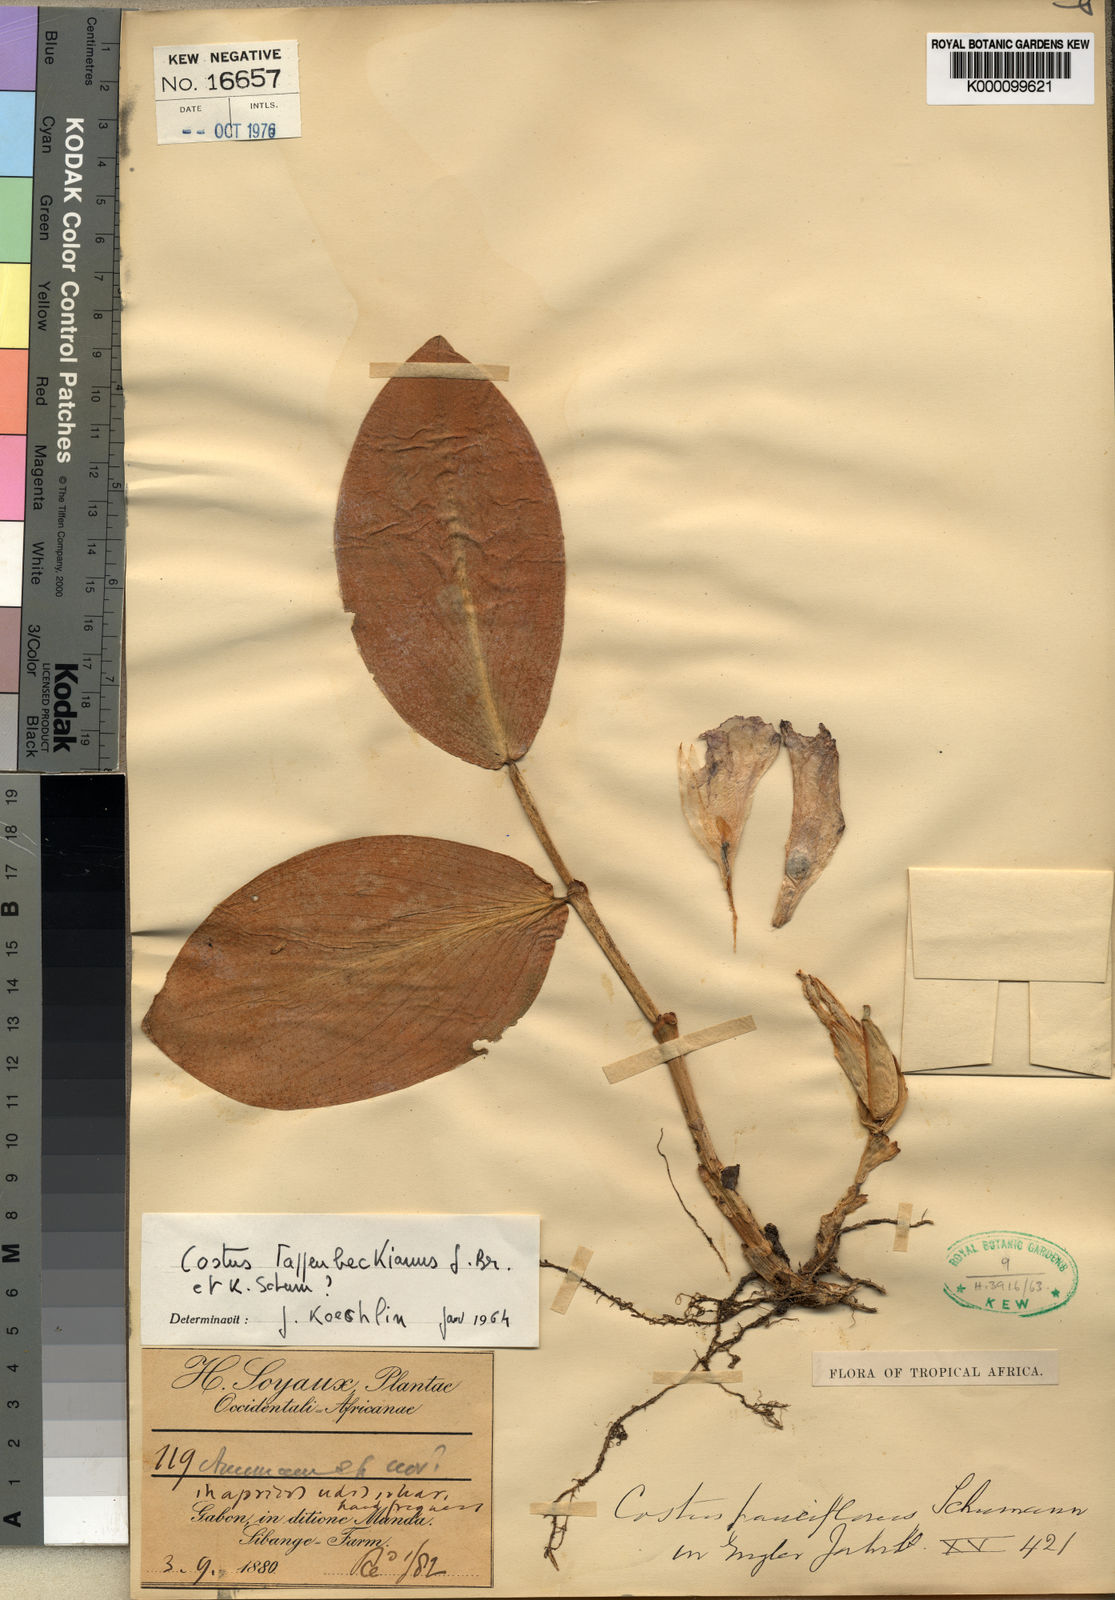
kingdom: Plantae
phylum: Tracheophyta
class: Liliopsida
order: Zingiberales
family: Costaceae
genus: Costus
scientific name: Costus tappenbeckianus
